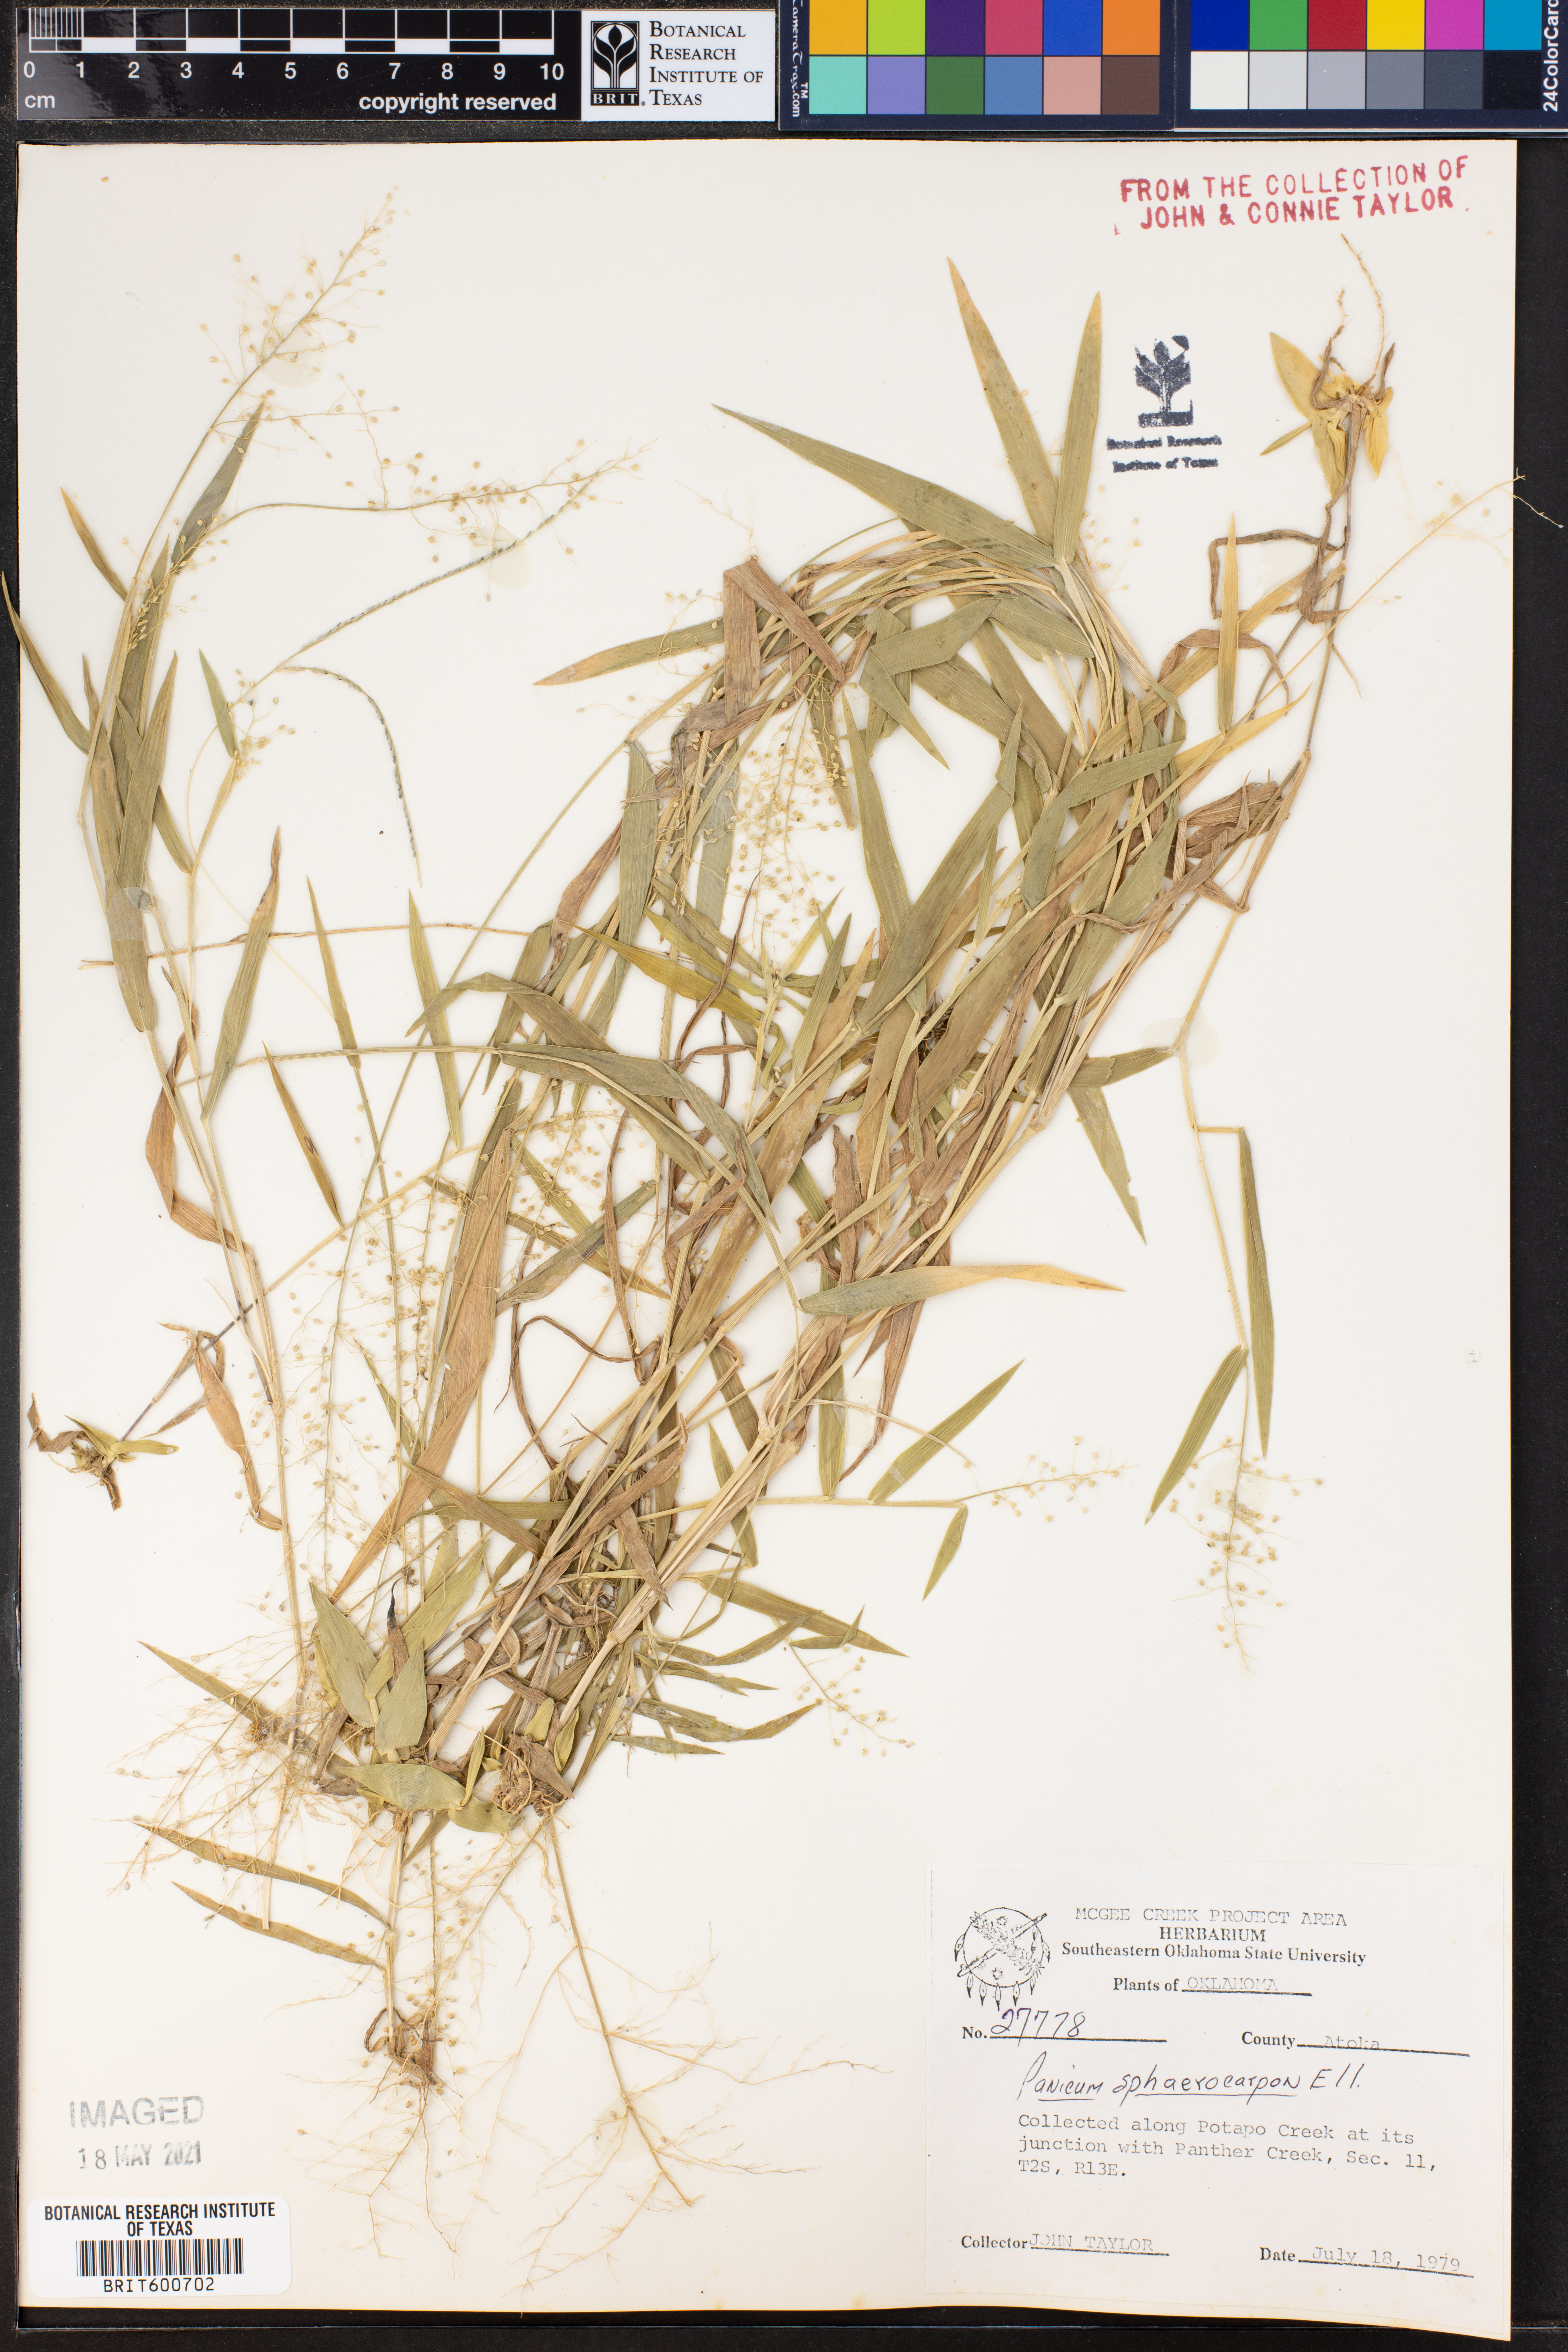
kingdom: Plantae
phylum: Tracheophyta
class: Liliopsida
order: Poales
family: Poaceae
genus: Dichanthelium
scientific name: Dichanthelium sphaerocarpon
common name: Round-fruited panicgrass
